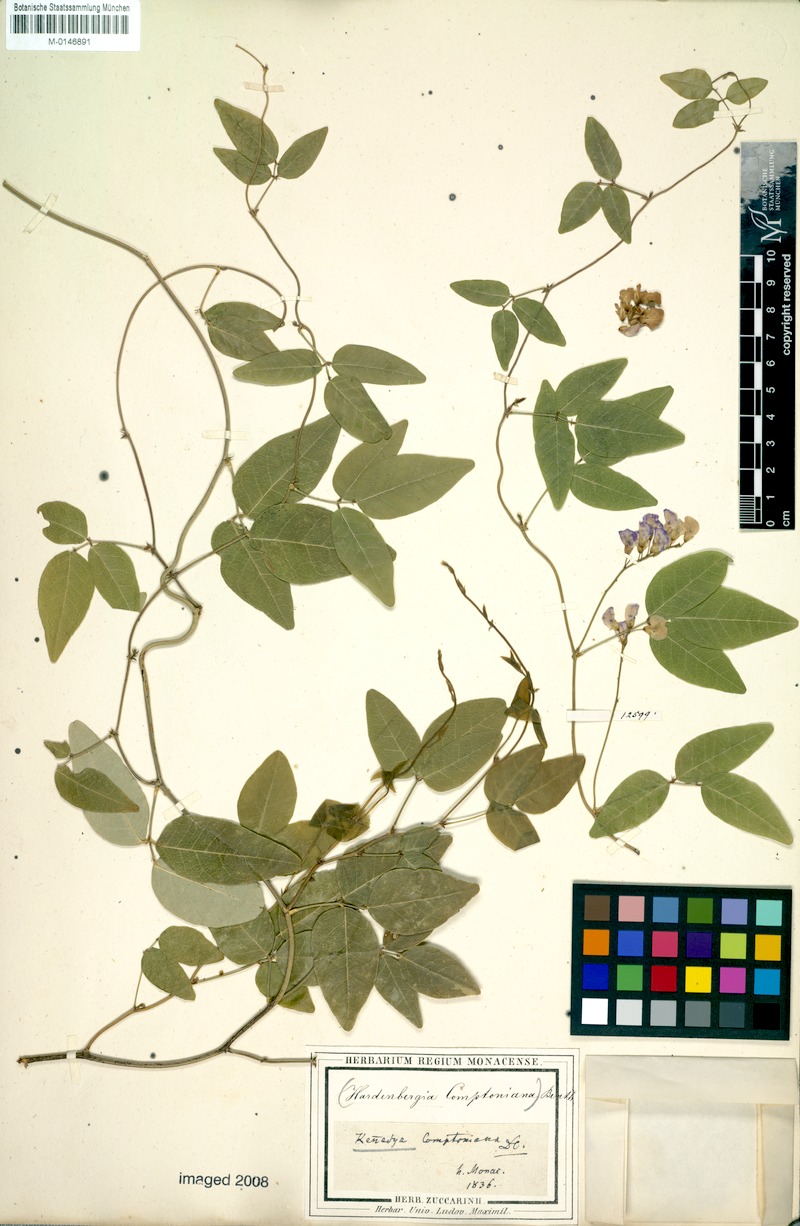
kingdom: Plantae
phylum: Tracheophyta
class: Magnoliopsida
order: Fabales
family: Fabaceae
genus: Hardenbergia
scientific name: Hardenbergia comptoniana
